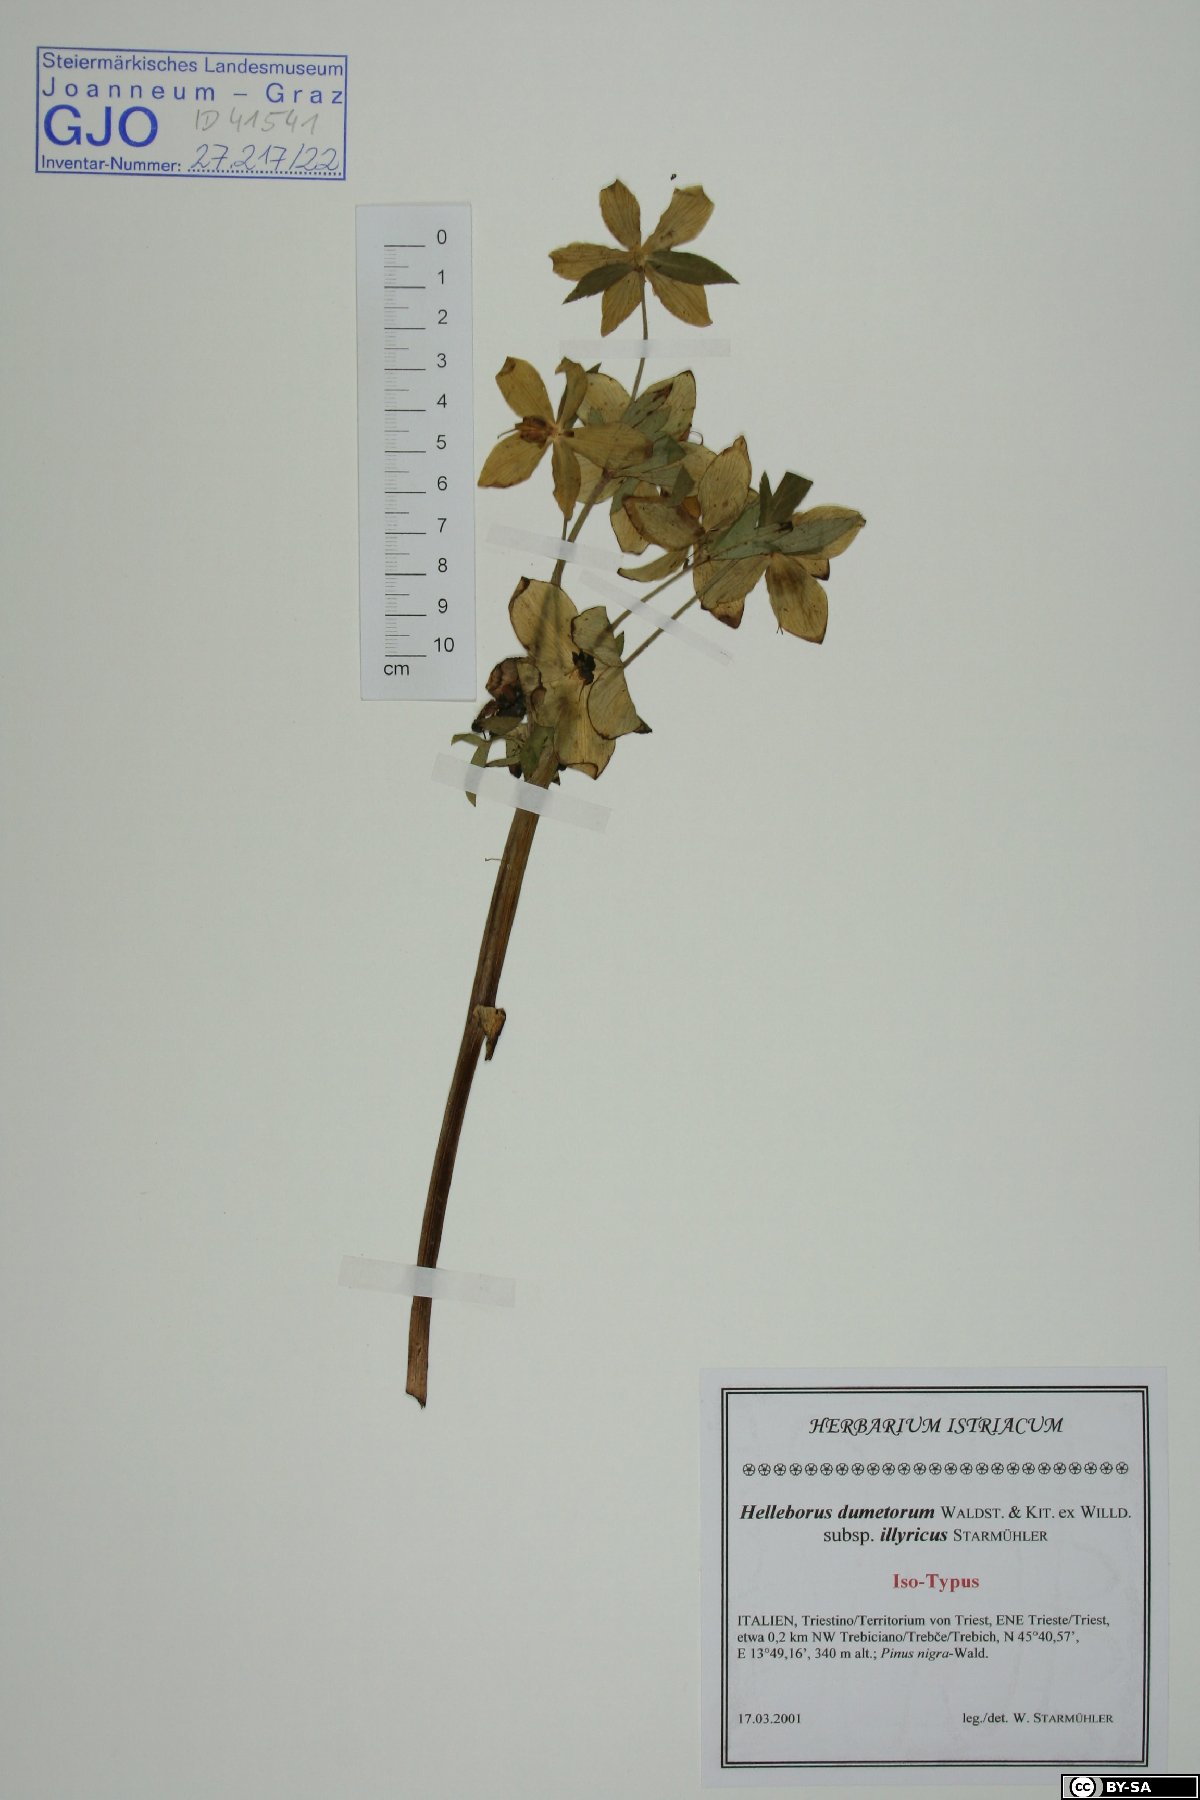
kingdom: Plantae
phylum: Tracheophyta
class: Magnoliopsida
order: Ranunculales
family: Ranunculaceae
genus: Helleborus
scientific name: Helleborus dumetorum
